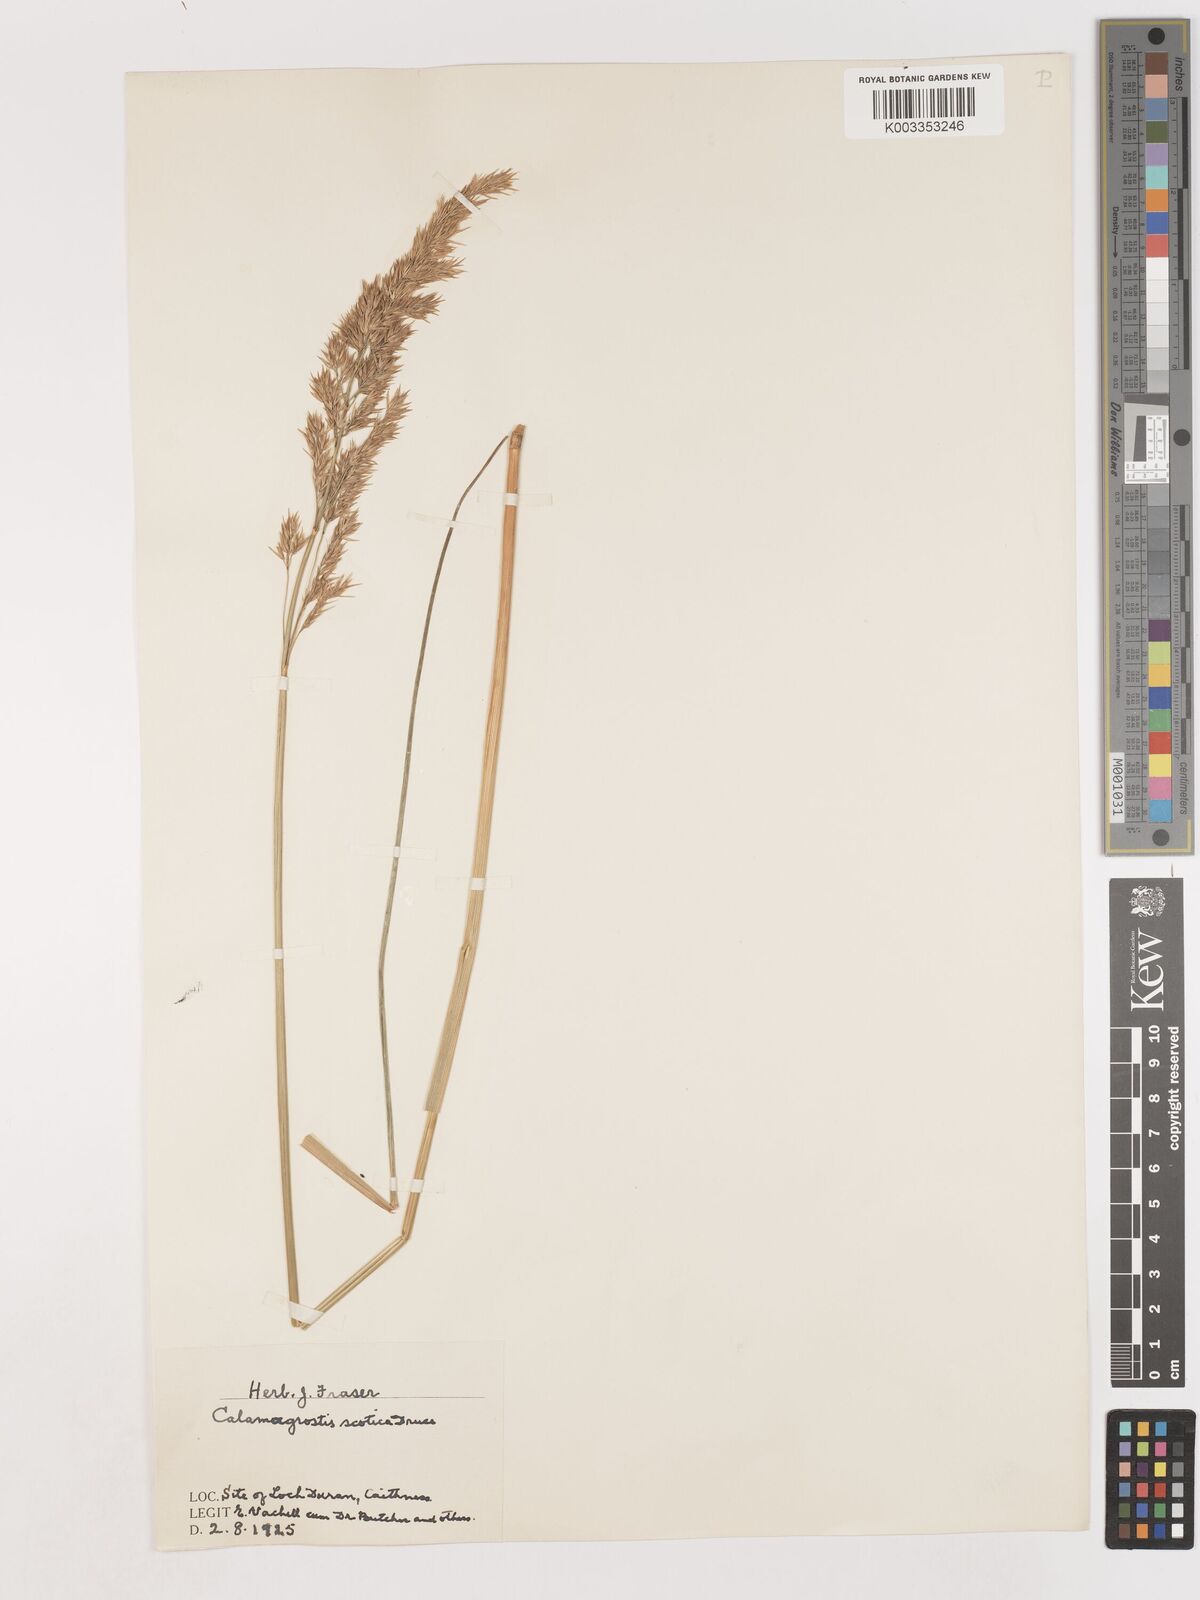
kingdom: Plantae
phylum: Tracheophyta
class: Liliopsida
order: Poales
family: Poaceae
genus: Calamagrostis
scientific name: Calamagrostis scotica
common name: Scottish small-reed
